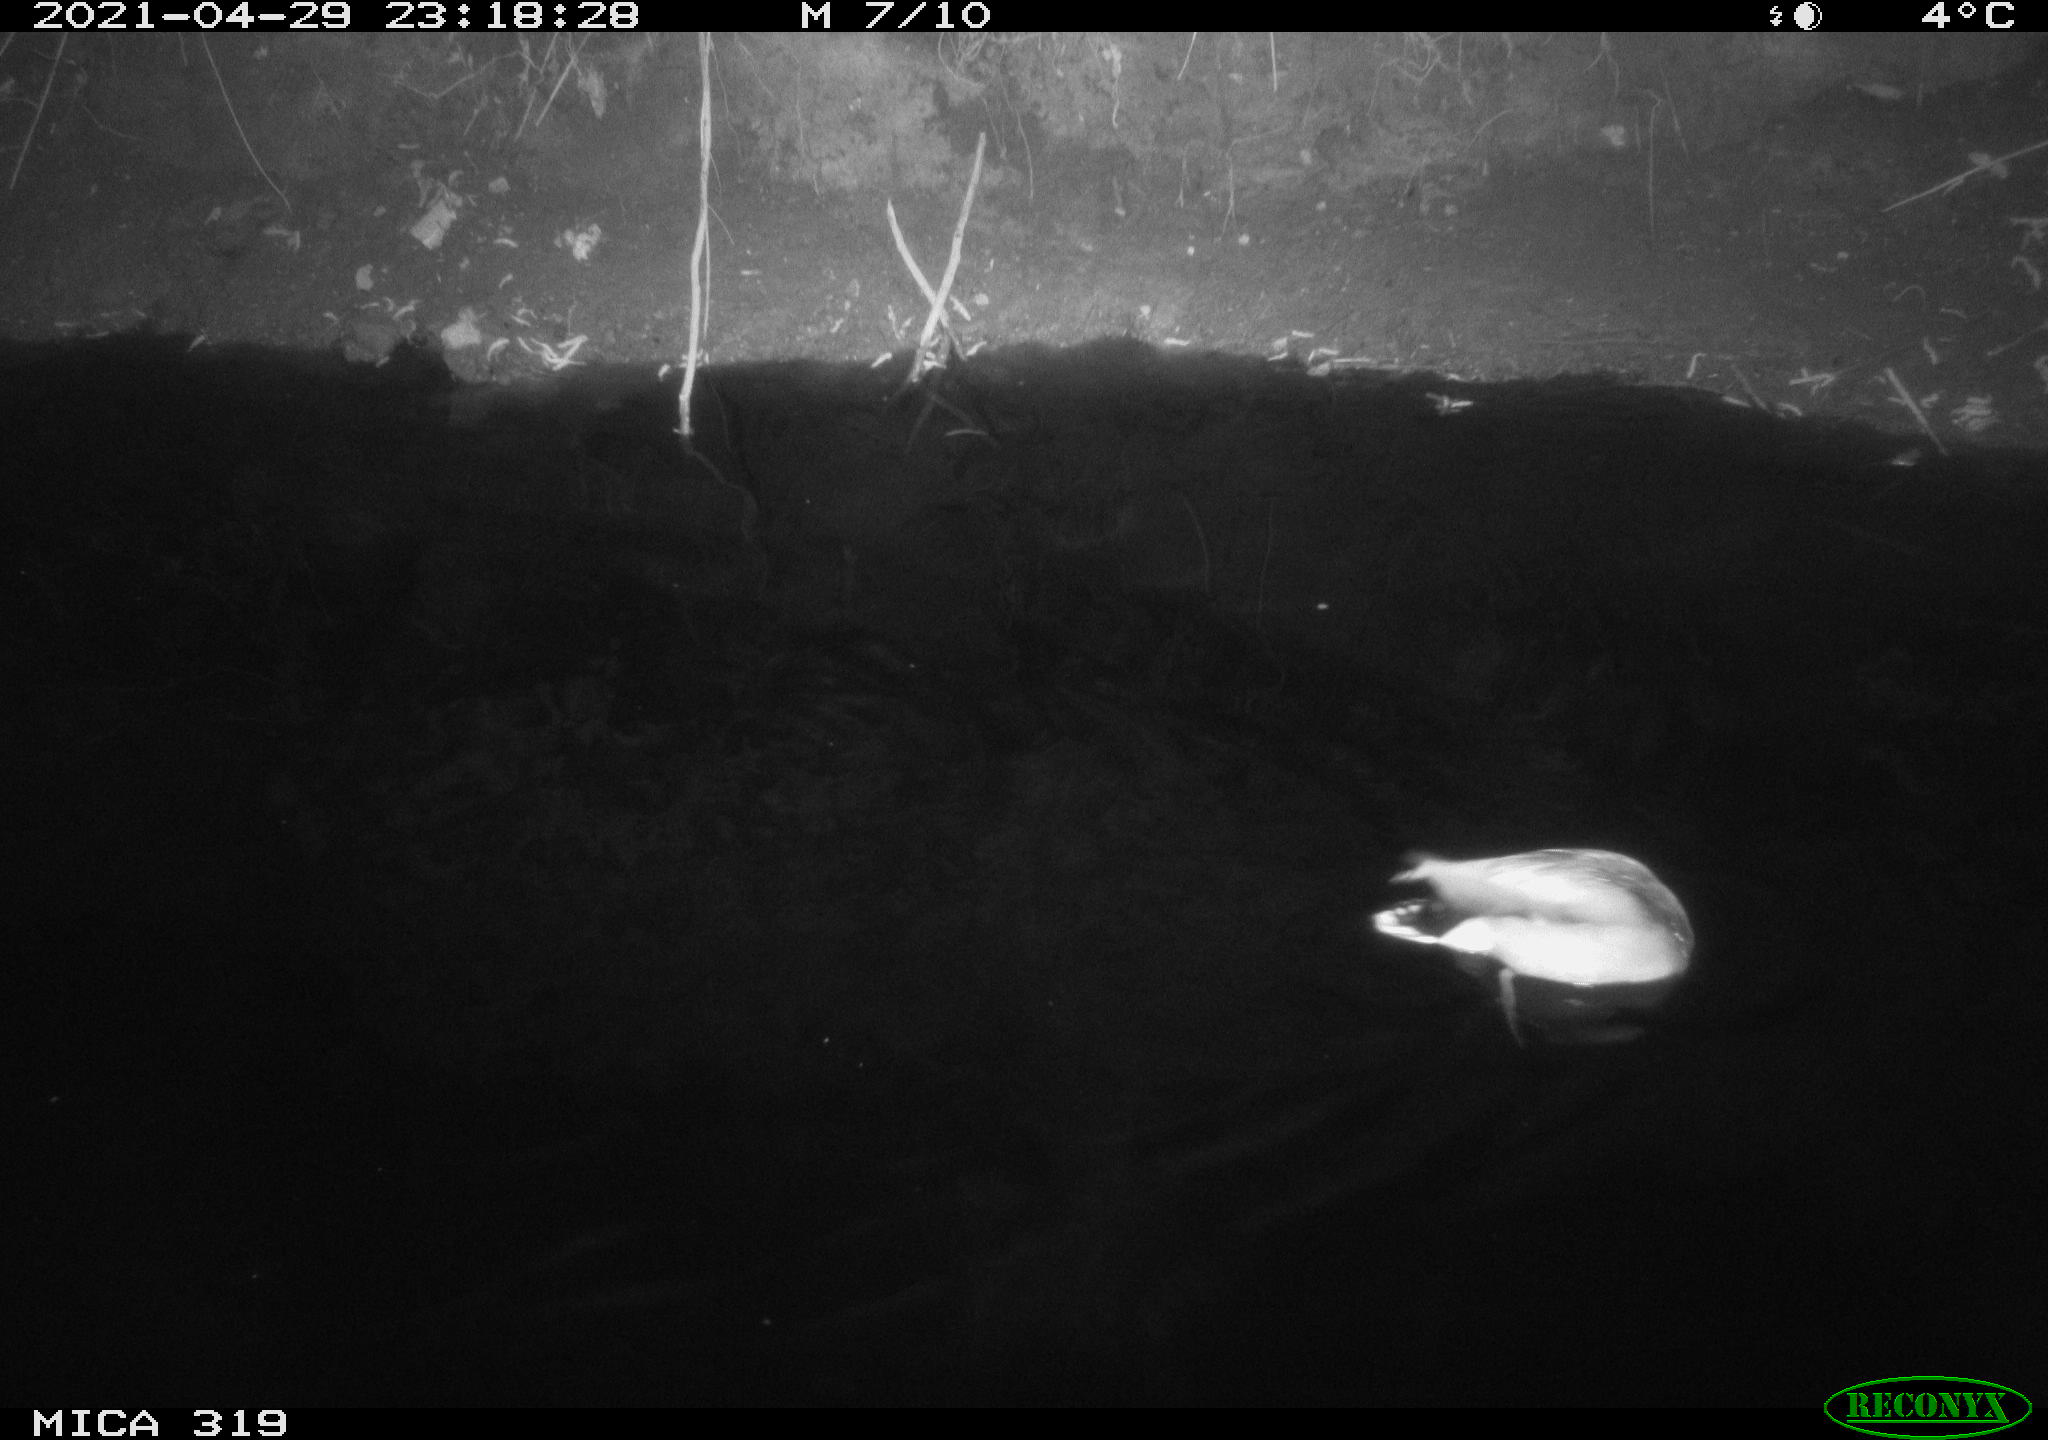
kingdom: Animalia
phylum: Chordata
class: Aves
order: Anseriformes
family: Anatidae
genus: Anas
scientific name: Anas platyrhynchos
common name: Mallard
